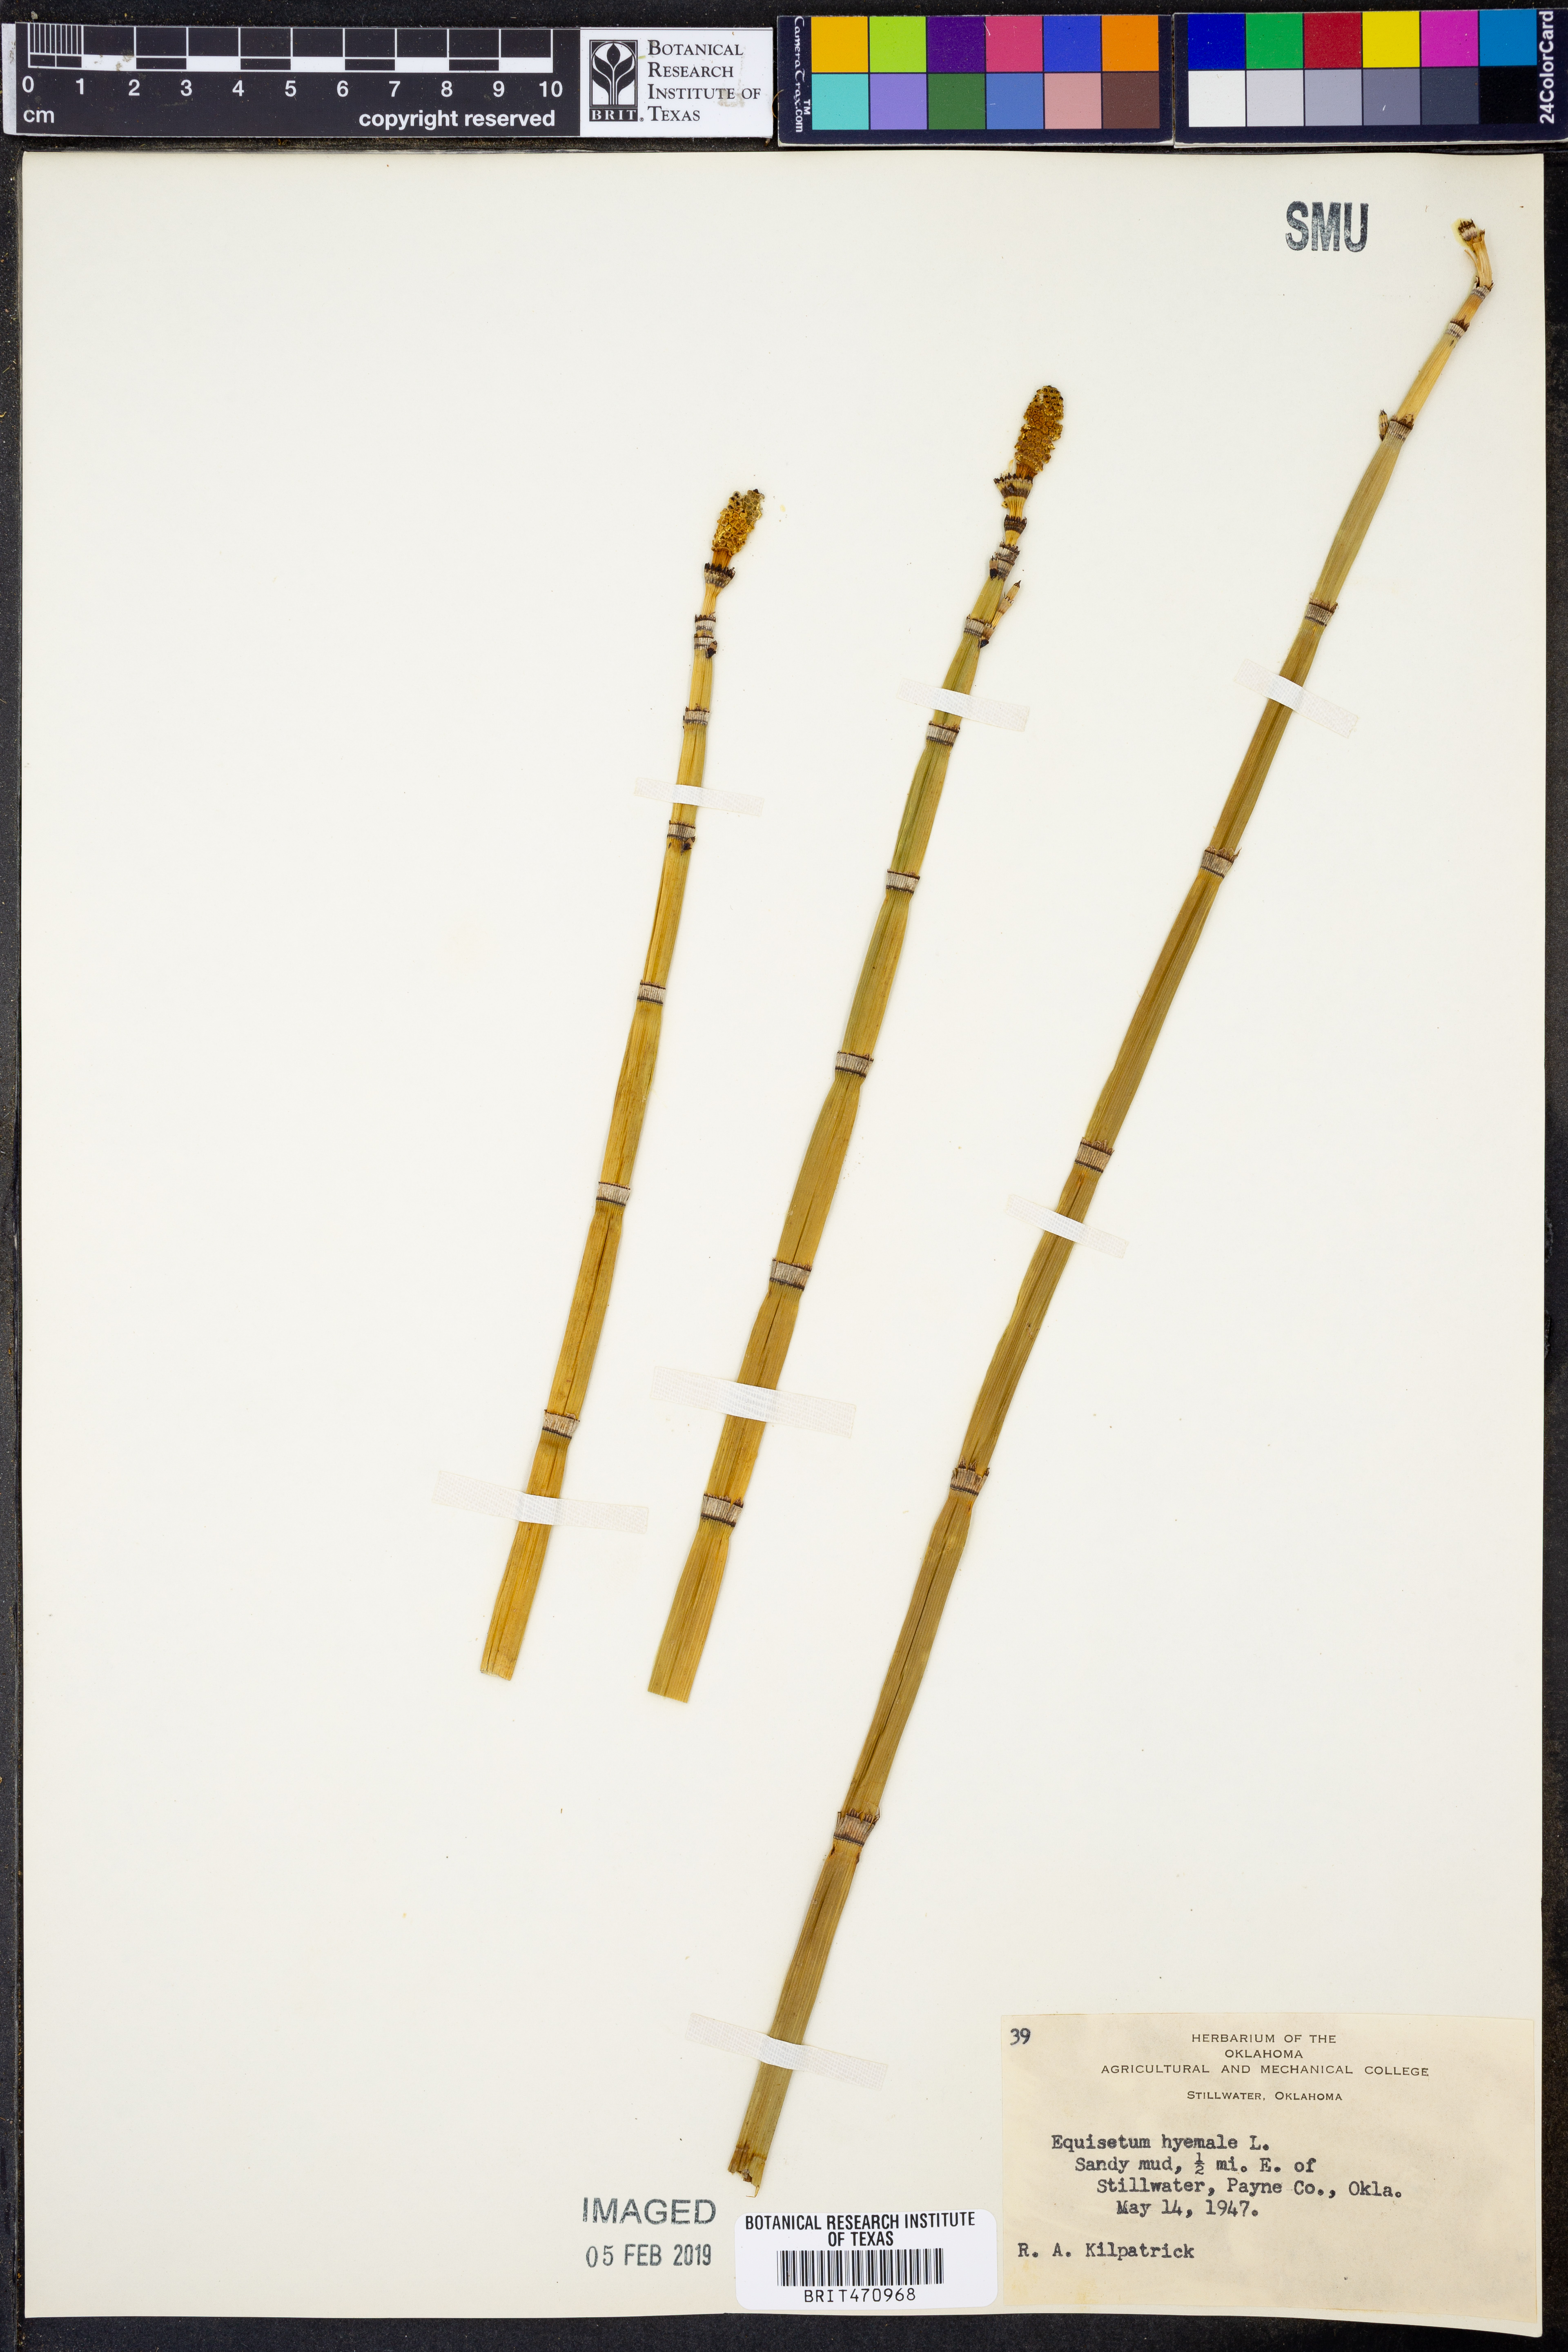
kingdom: Plantae
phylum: Tracheophyta
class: Polypodiopsida
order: Equisetales
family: Equisetaceae
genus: Equisetum
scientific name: Equisetum hyemale
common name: Rough horsetail
